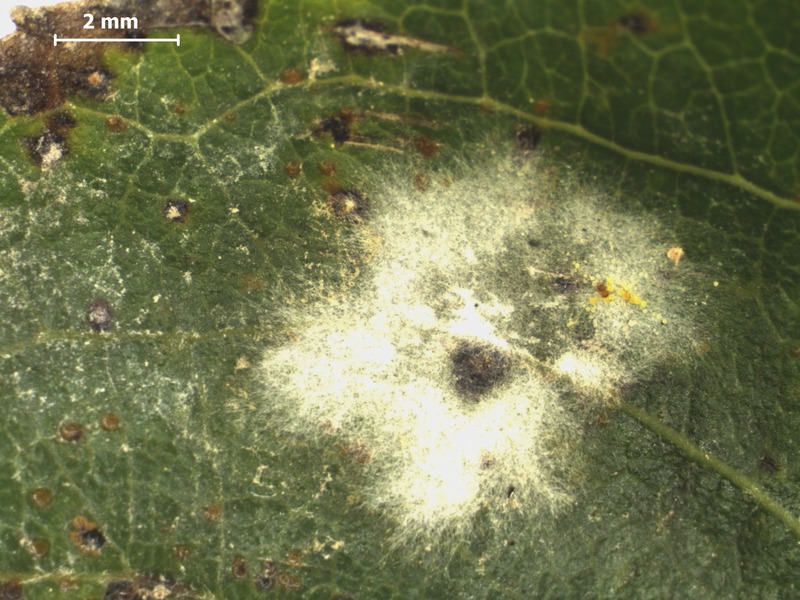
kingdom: Fungi
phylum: Ascomycota
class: Leotiomycetes
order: Helotiales
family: Erysiphaceae
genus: Erysiphe
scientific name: Erysiphe salicis
